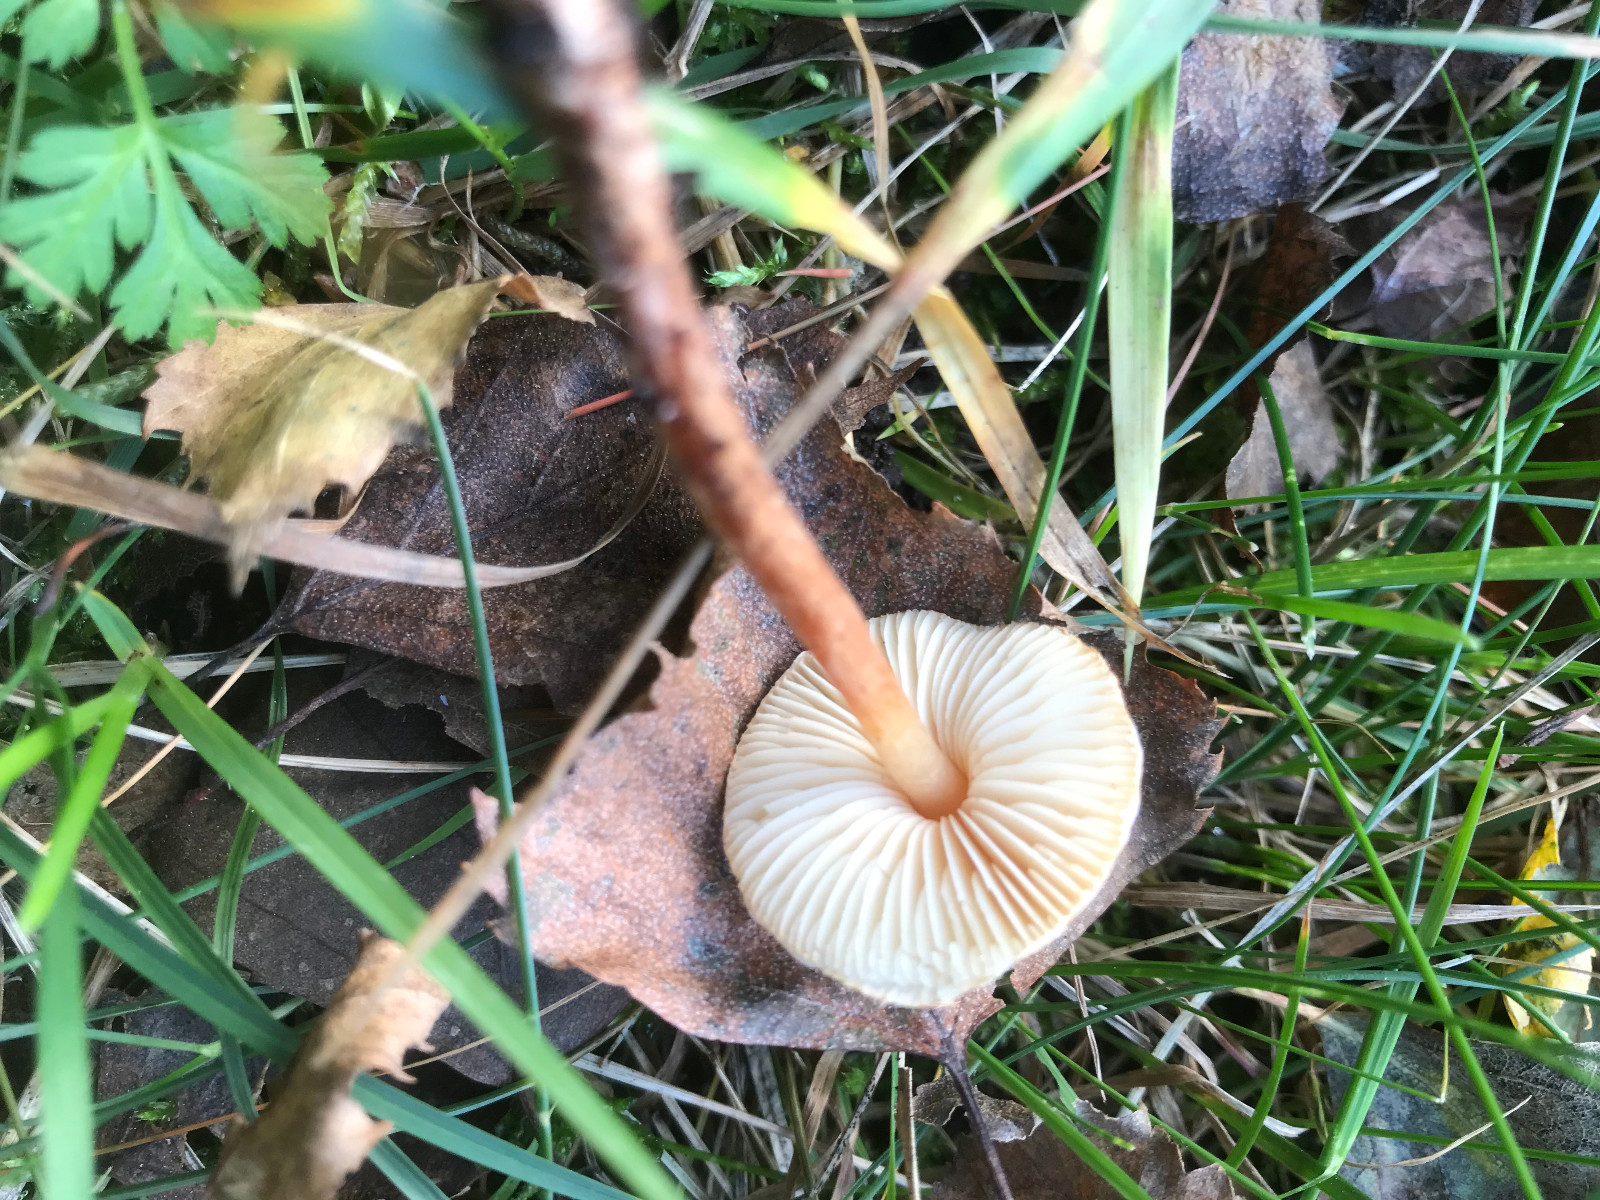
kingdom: Fungi
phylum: Basidiomycota
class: Agaricomycetes
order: Agaricales
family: Agaricaceae
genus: Lepiota
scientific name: Lepiota castanea
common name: kastaniebrun parasolhat
